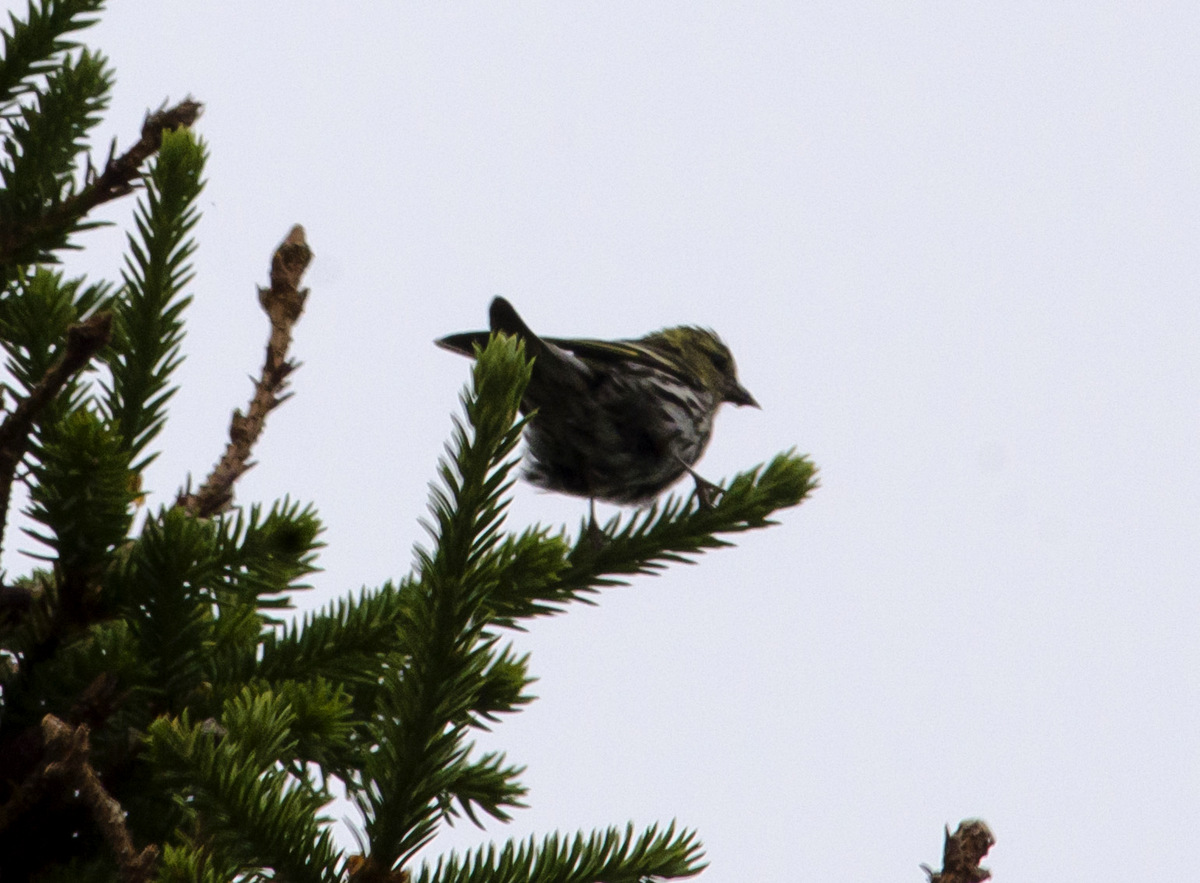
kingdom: Animalia
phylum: Chordata
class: Aves
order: Passeriformes
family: Fringillidae
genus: Spinus
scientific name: Spinus spinus
